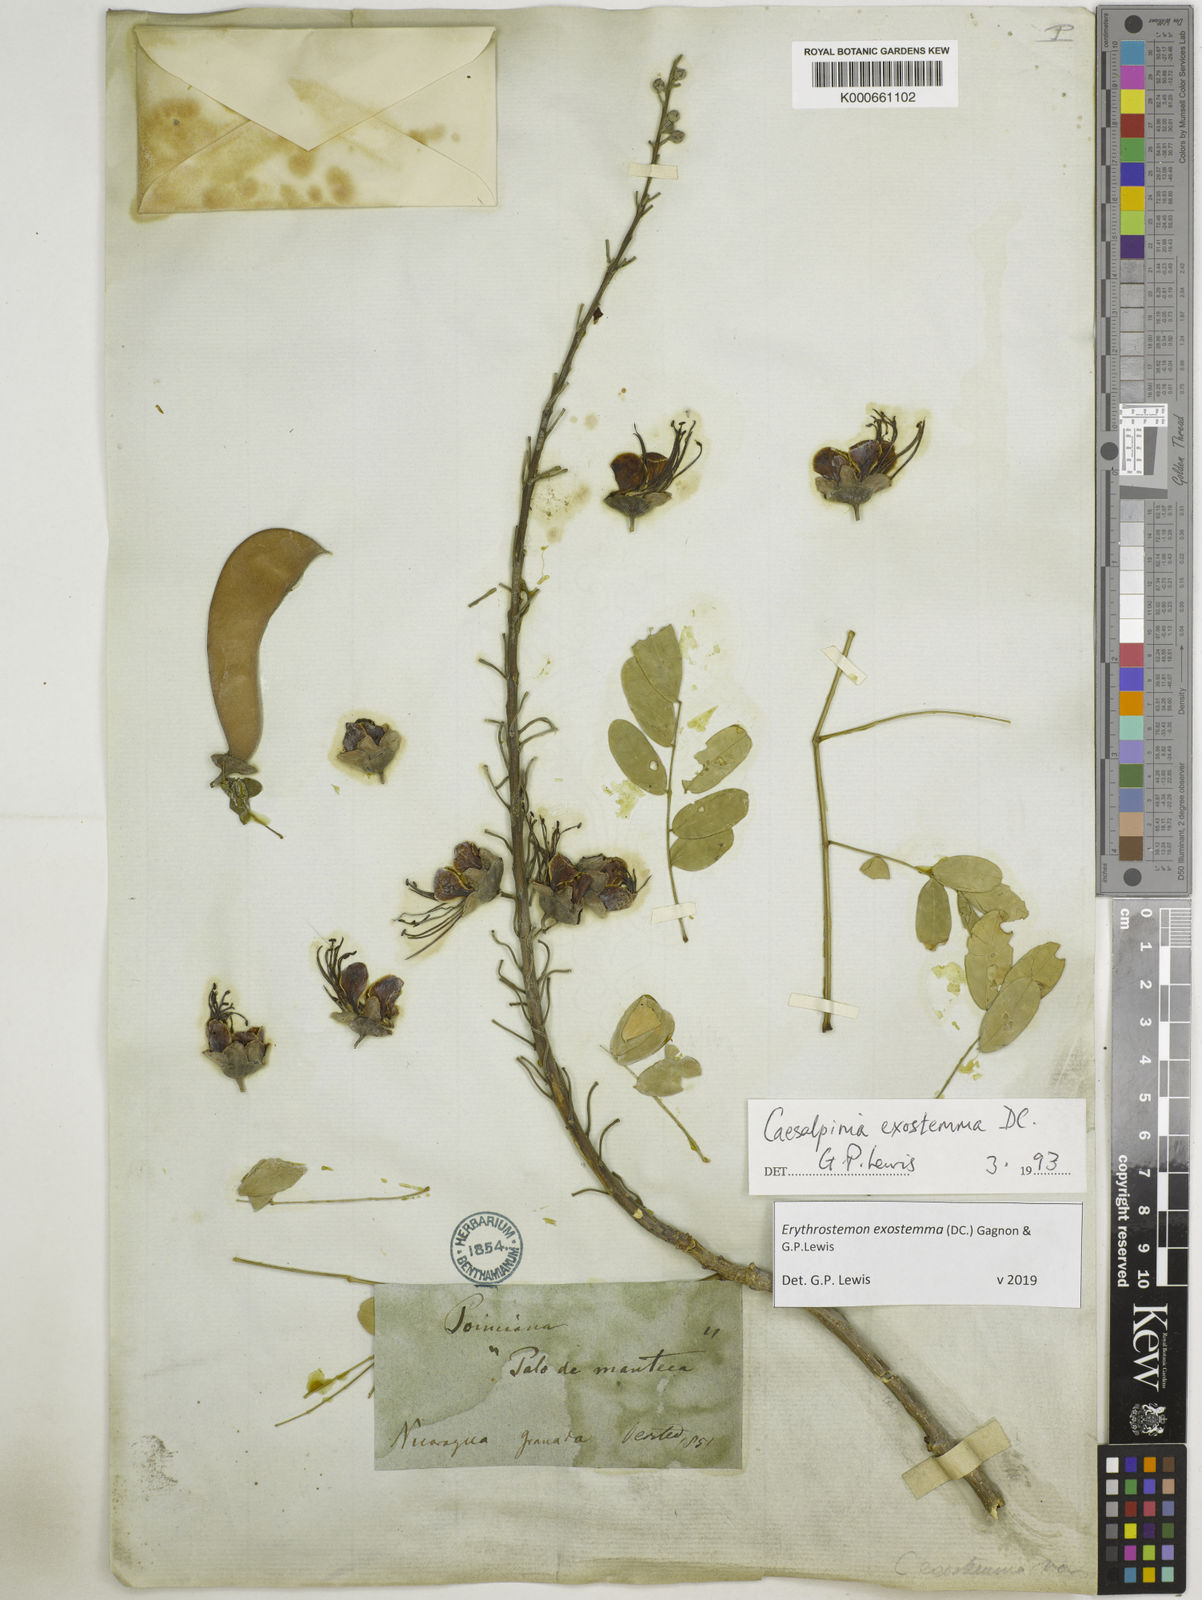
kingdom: Plantae
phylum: Tracheophyta
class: Magnoliopsida
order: Fabales
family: Fabaceae
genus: Erythrostemon
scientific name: Erythrostemon exostemma
